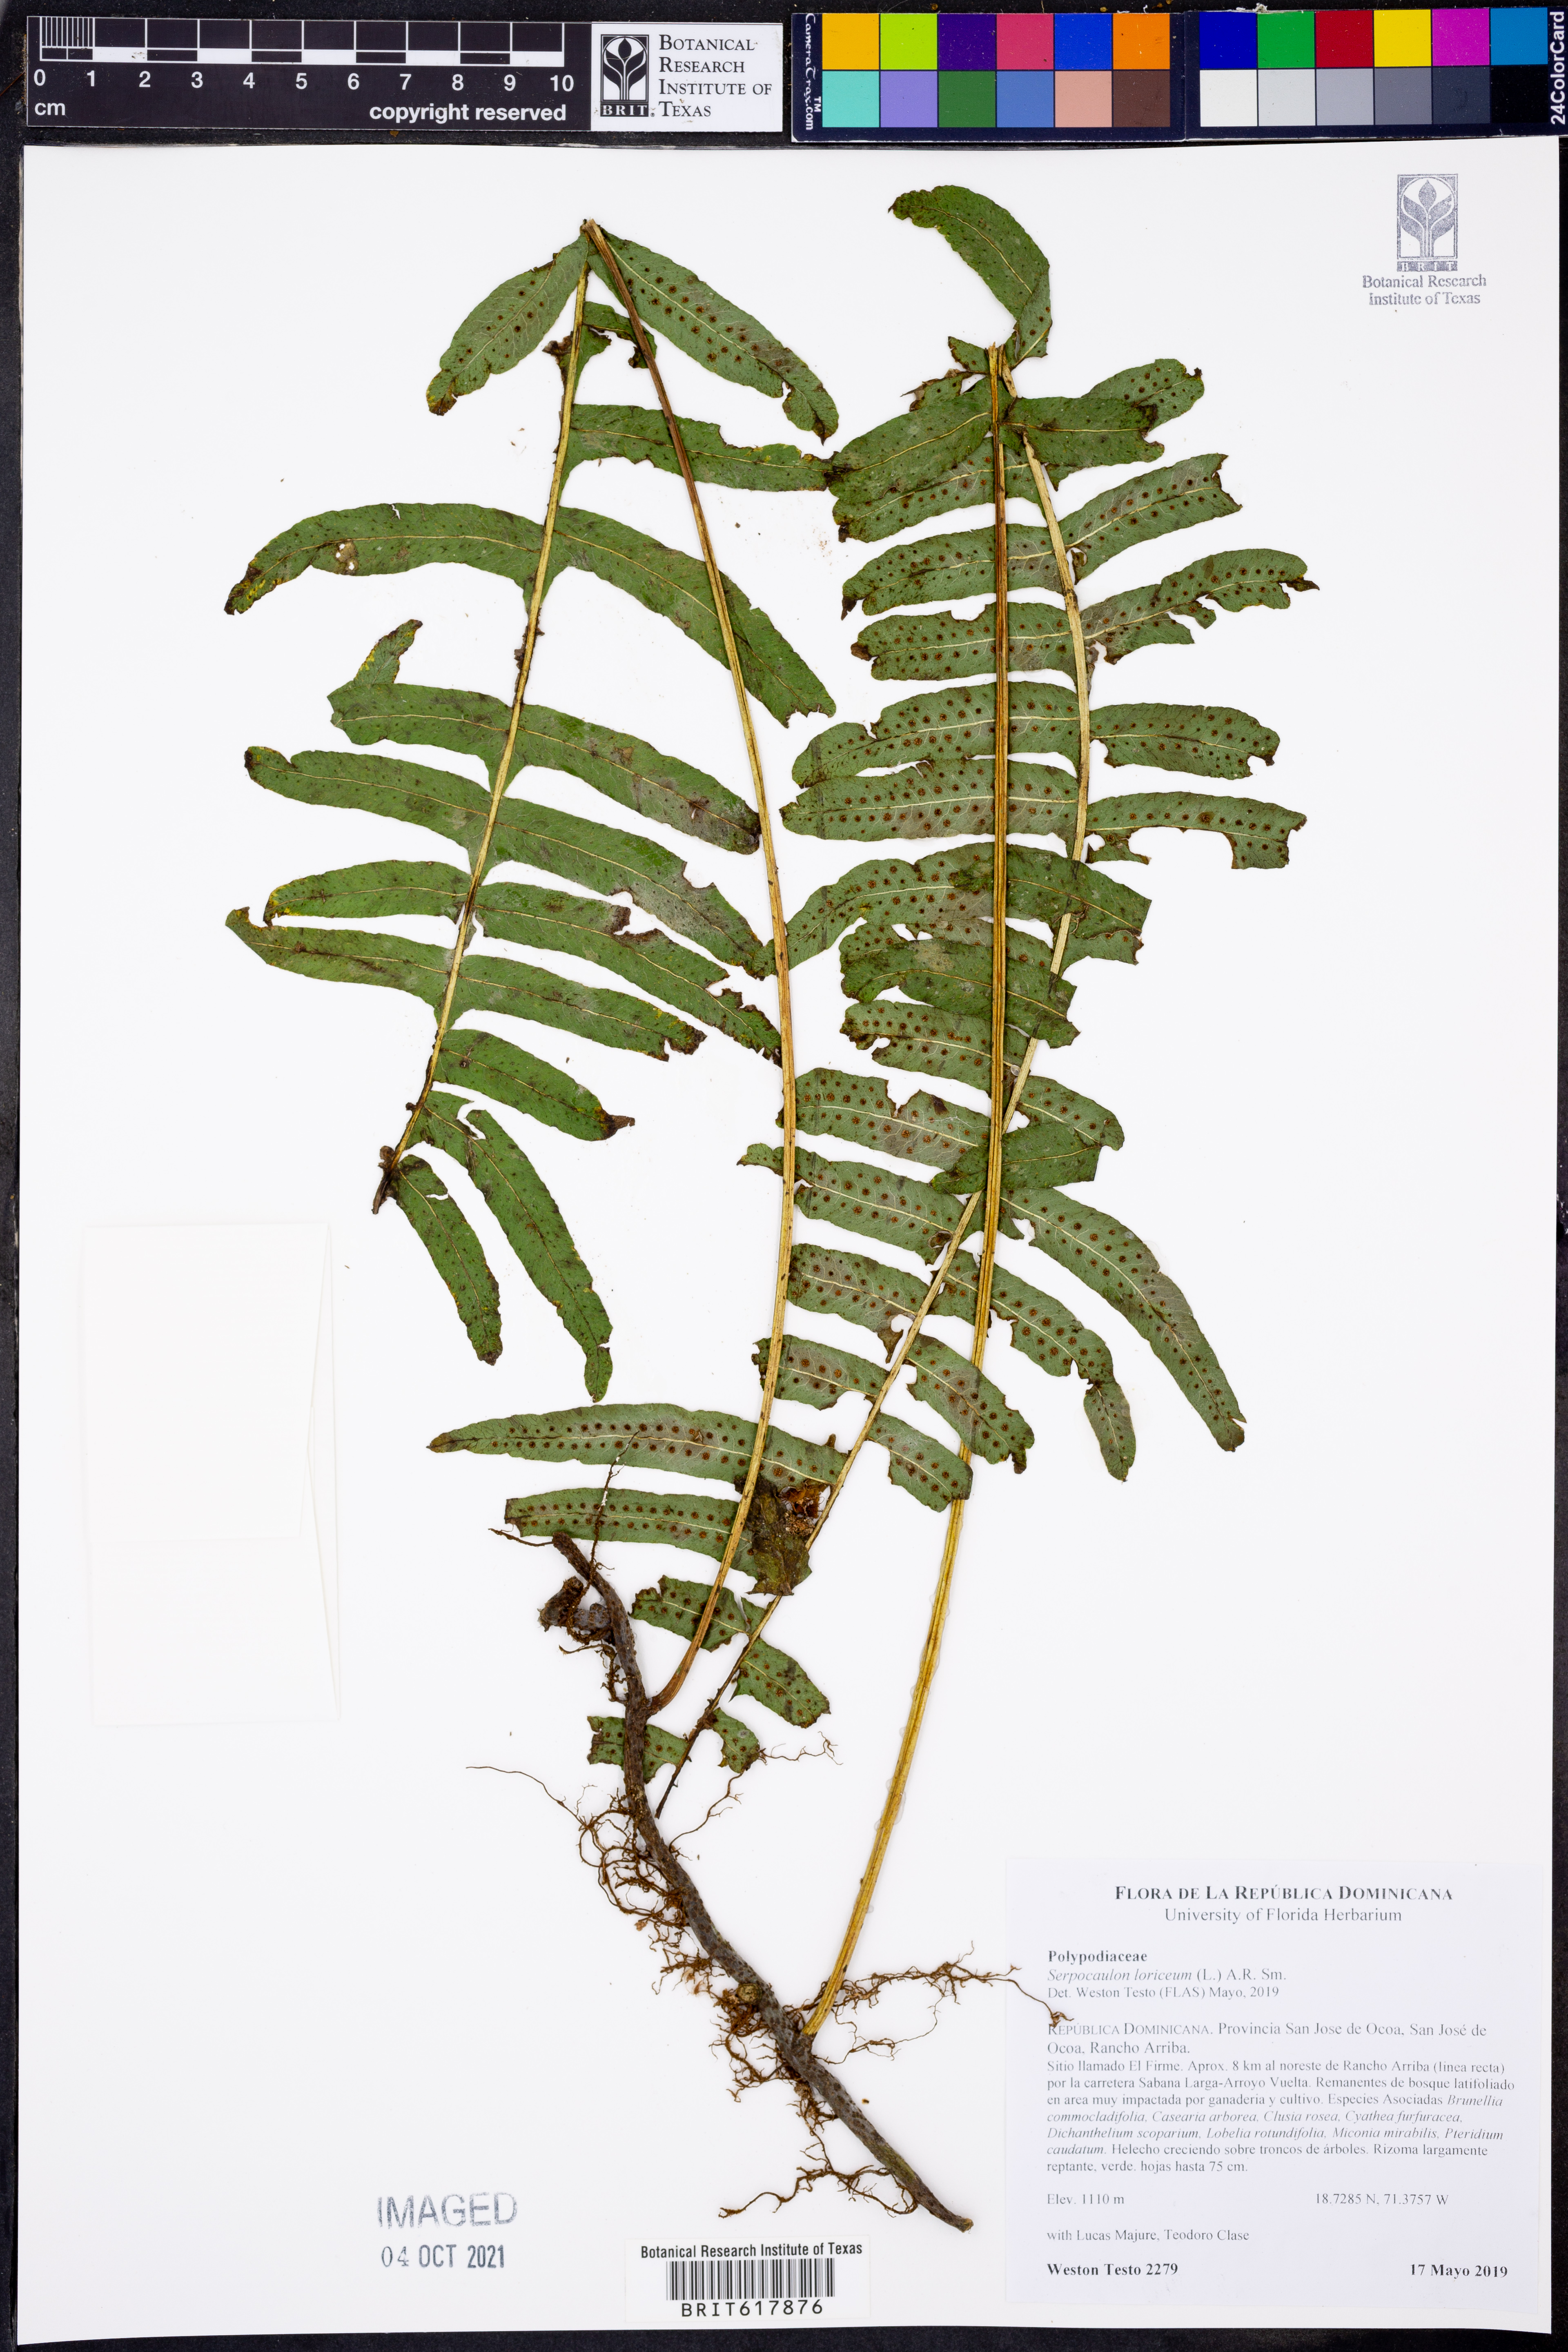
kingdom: Plantae
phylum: Tracheophyta
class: Polypodiopsida
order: Polypodiales
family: Polypodiaceae
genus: Serpocaulon
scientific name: Serpocaulon loriceum
